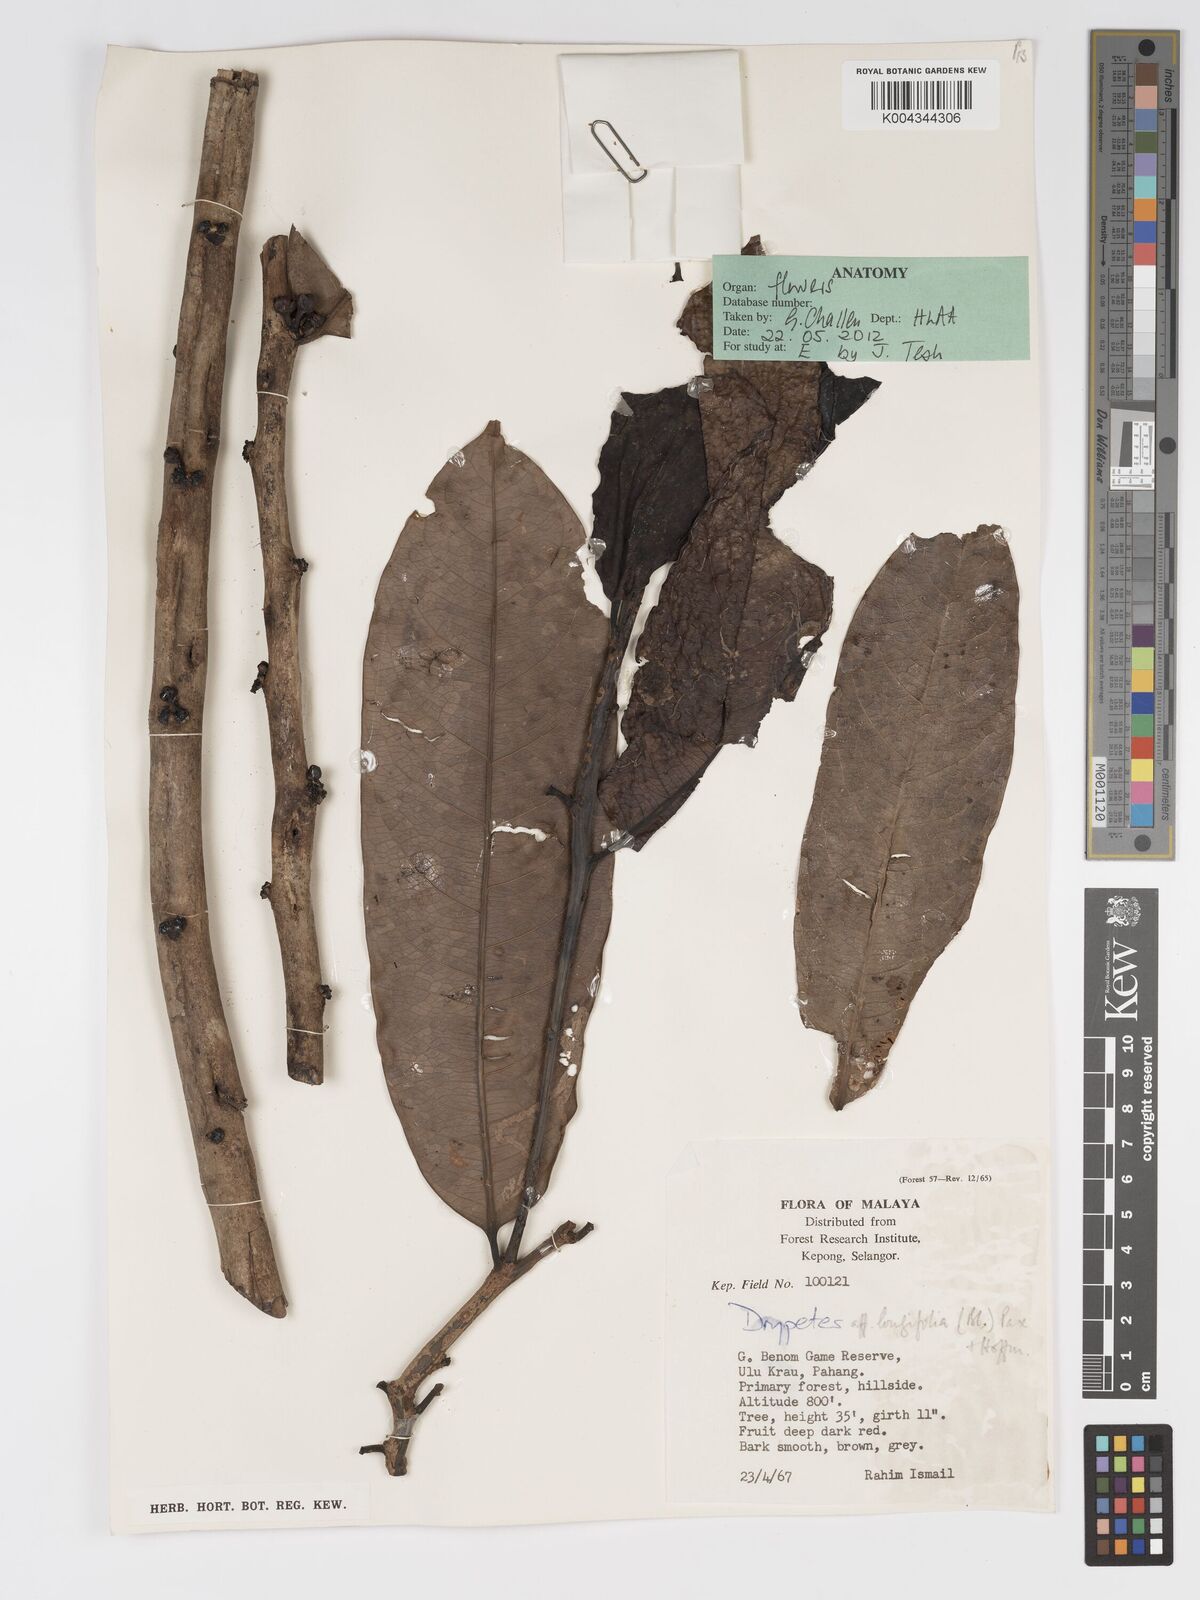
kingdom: Plantae
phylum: Tracheophyta
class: Magnoliopsida
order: Malpighiales
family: Putranjivaceae
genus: Drypetes
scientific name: Drypetes longifolia
